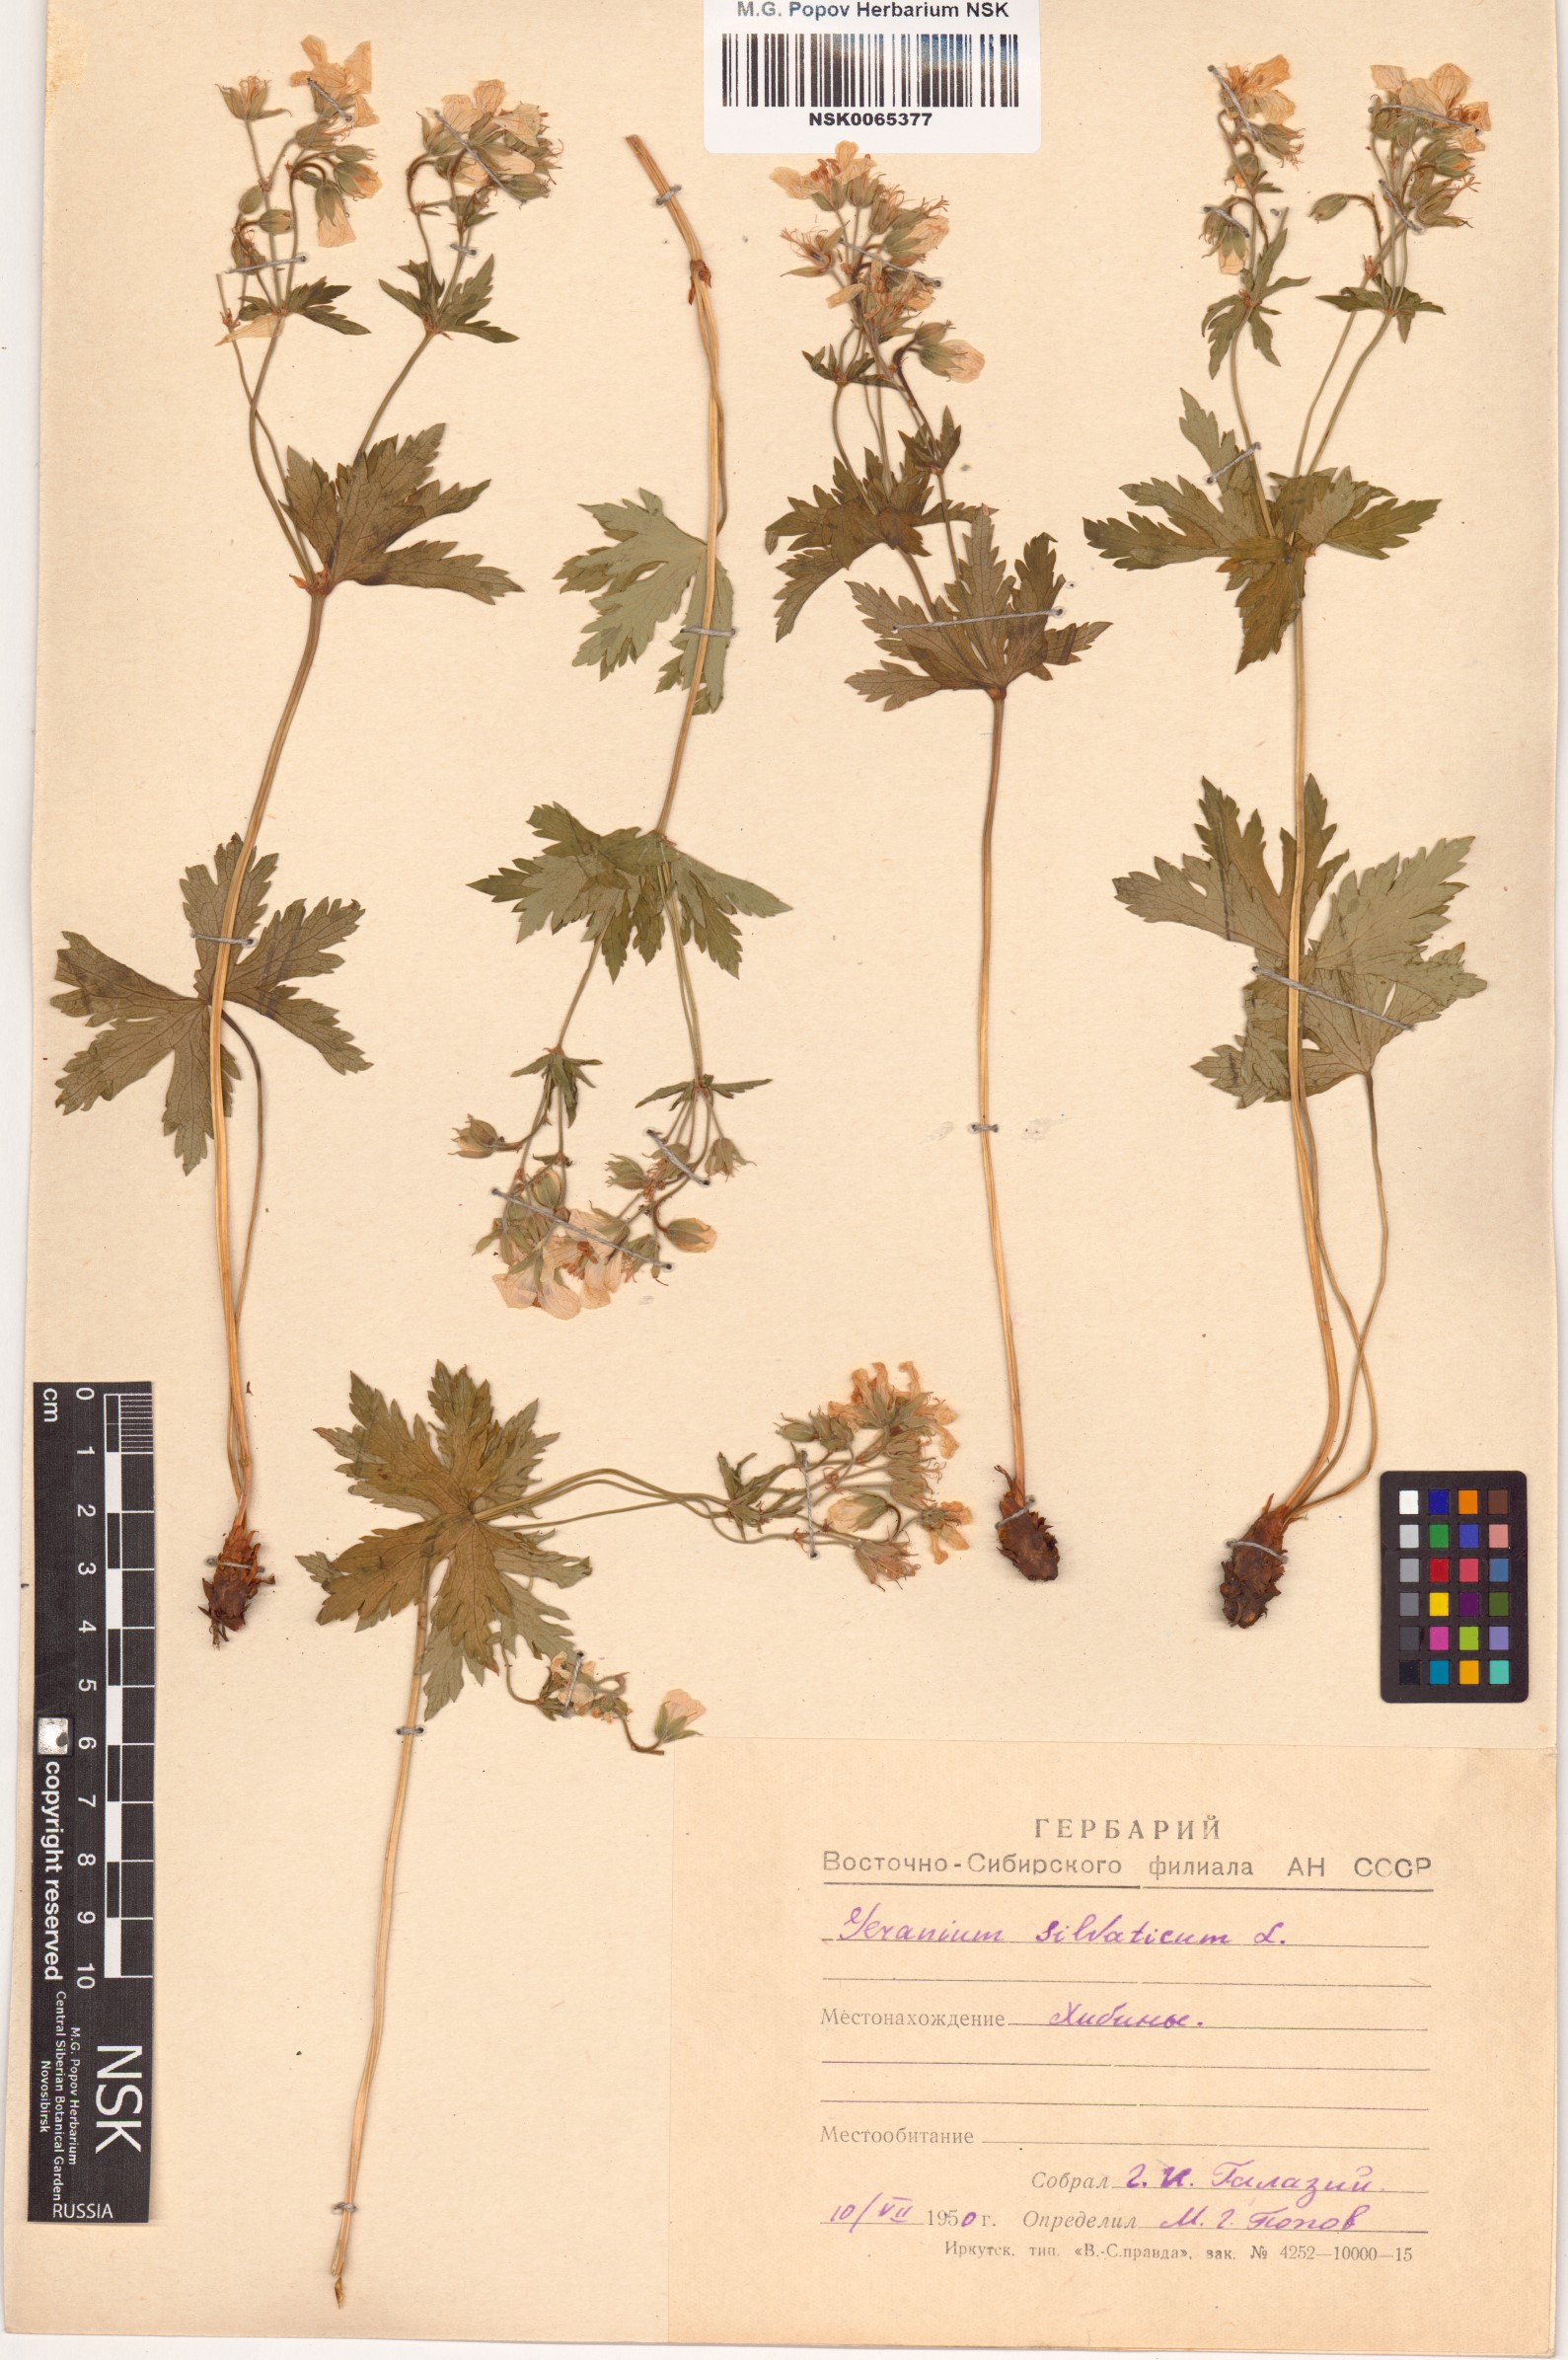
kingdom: Plantae
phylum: Tracheophyta
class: Magnoliopsida
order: Geraniales
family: Geraniaceae
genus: Geranium
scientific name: Geranium sylvaticum
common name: Wood crane's-bill
